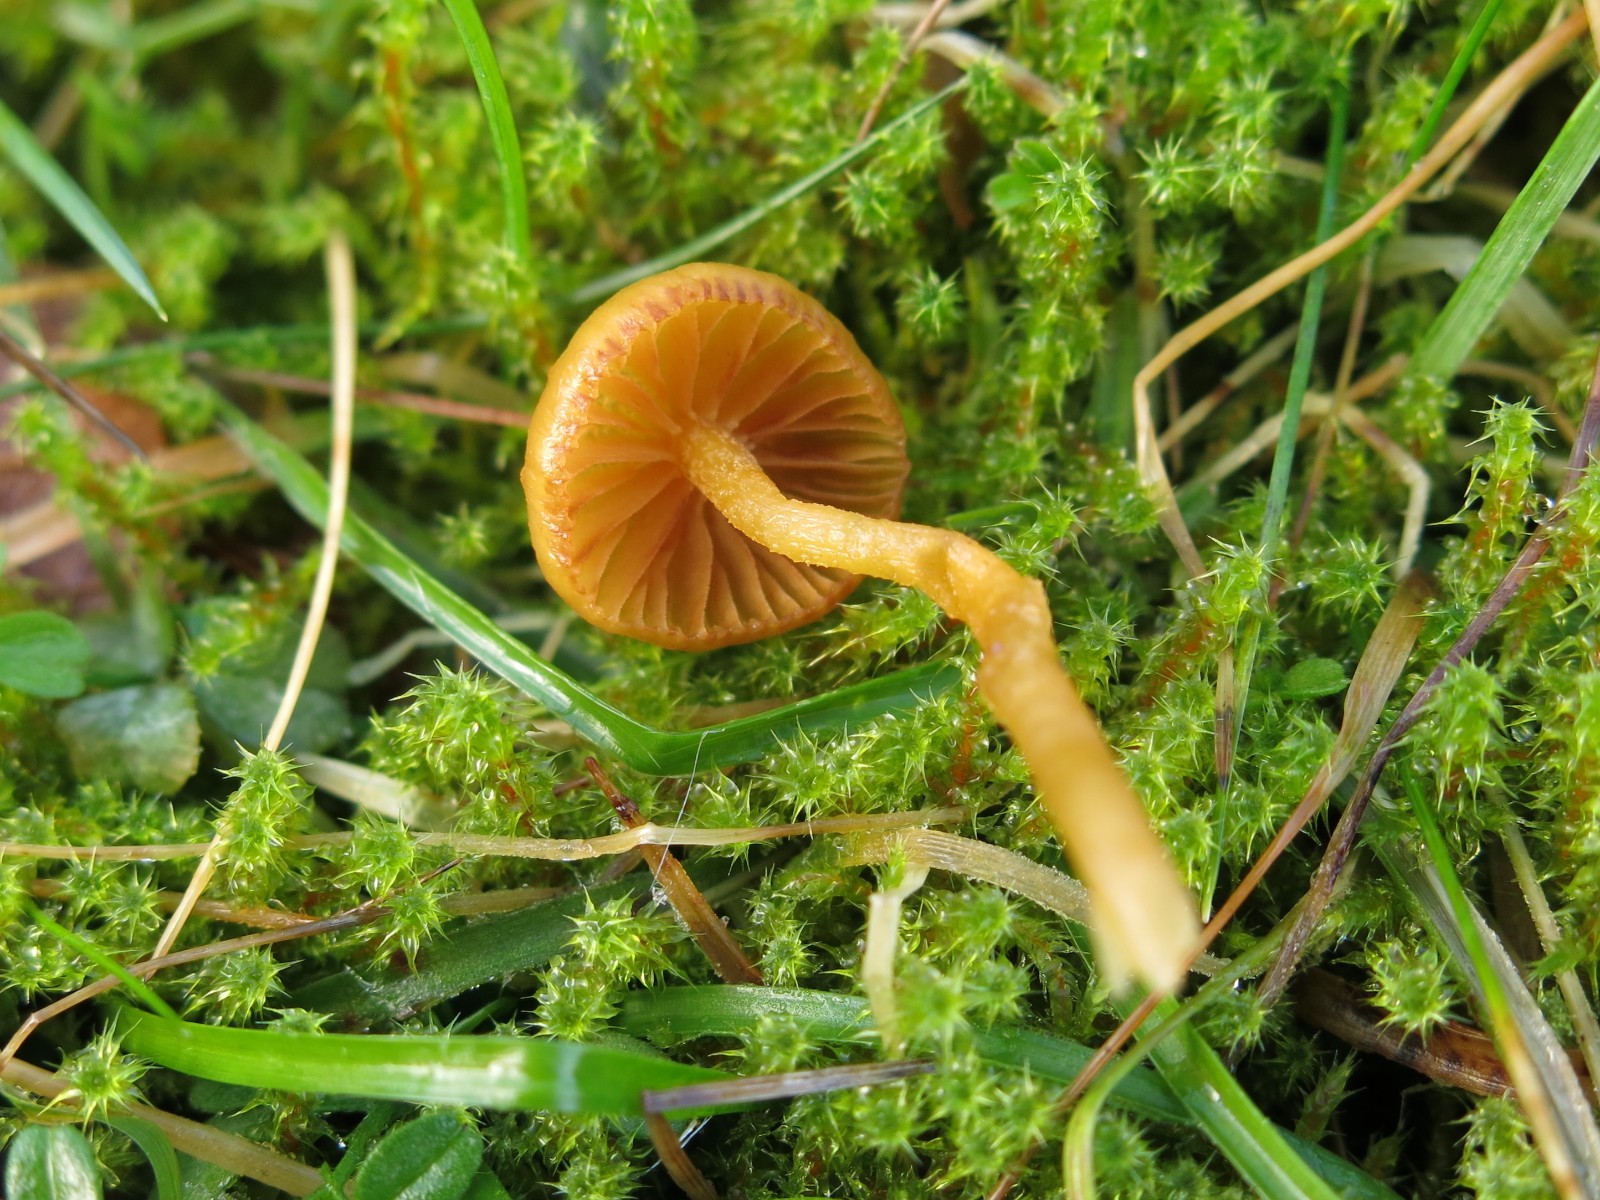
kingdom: Fungi
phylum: Basidiomycota
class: Agaricomycetes
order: Agaricales
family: Hymenogastraceae
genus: Galerina
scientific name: Galerina
